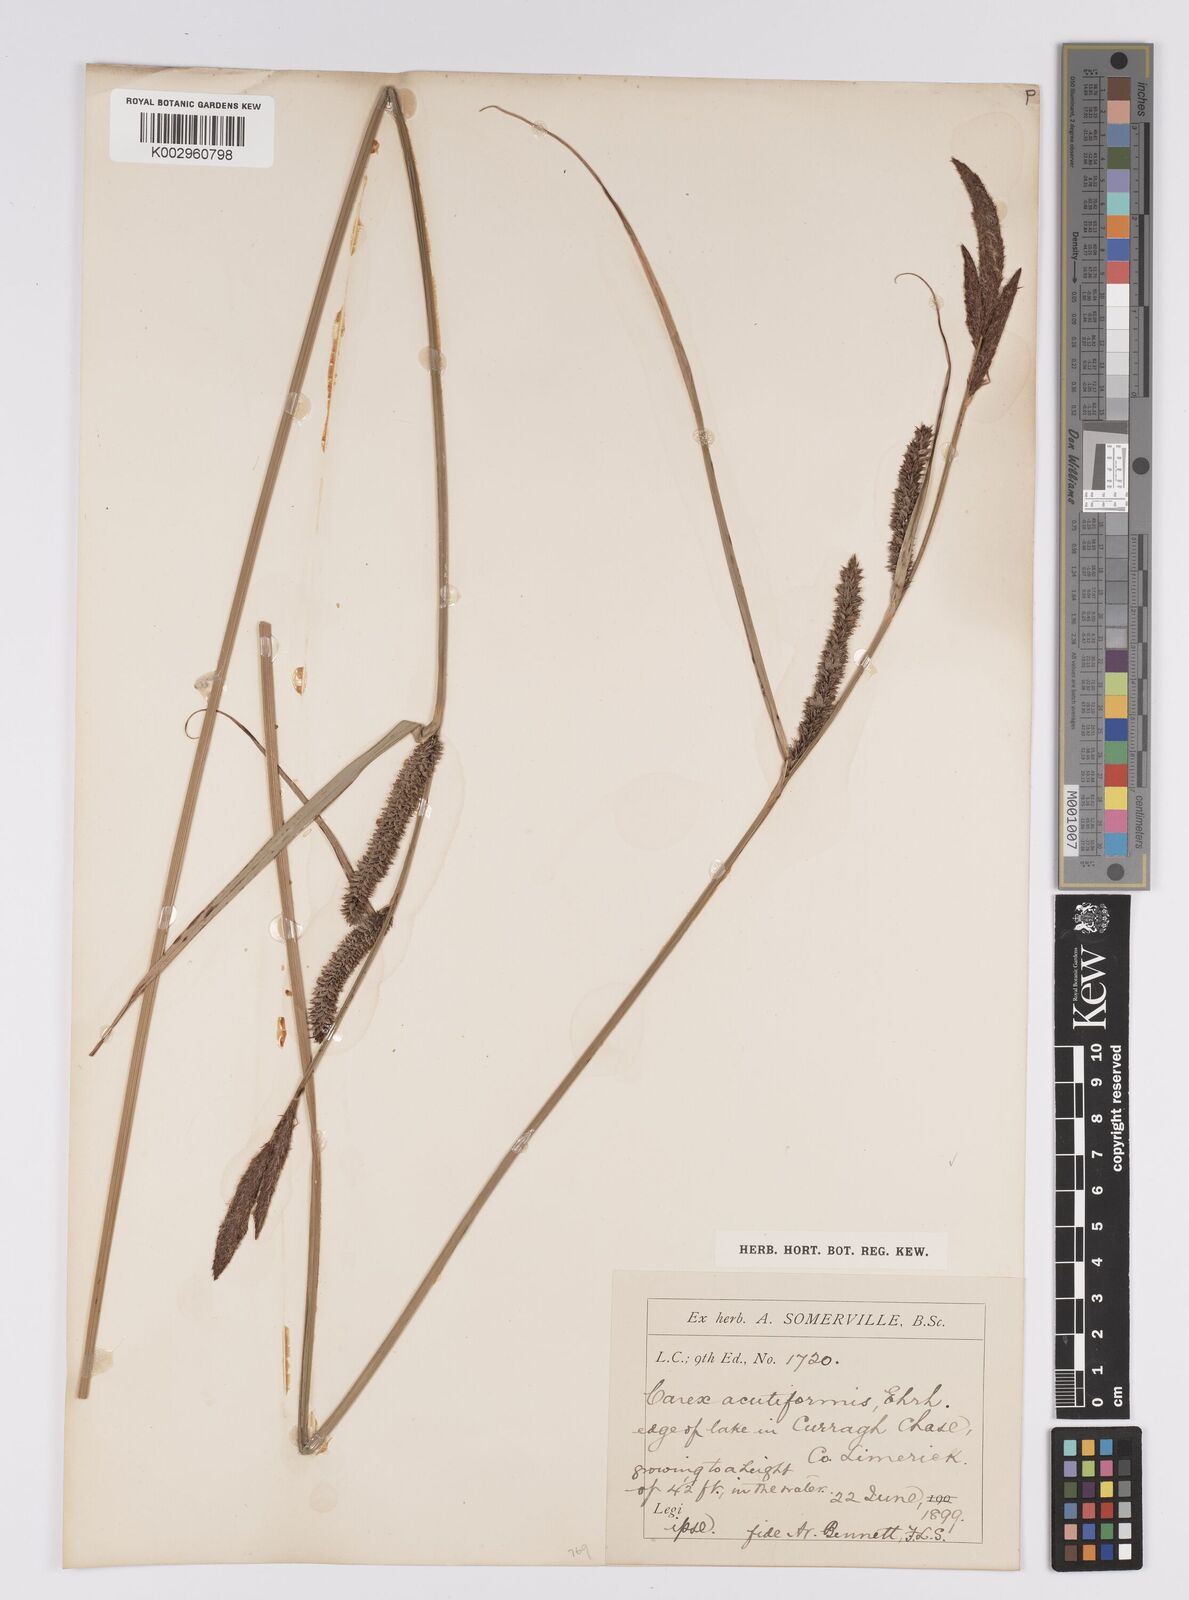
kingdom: Plantae
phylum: Tracheophyta
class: Liliopsida
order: Poales
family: Cyperaceae
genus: Carex
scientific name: Carex acutiformis
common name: Lesser pond-sedge
